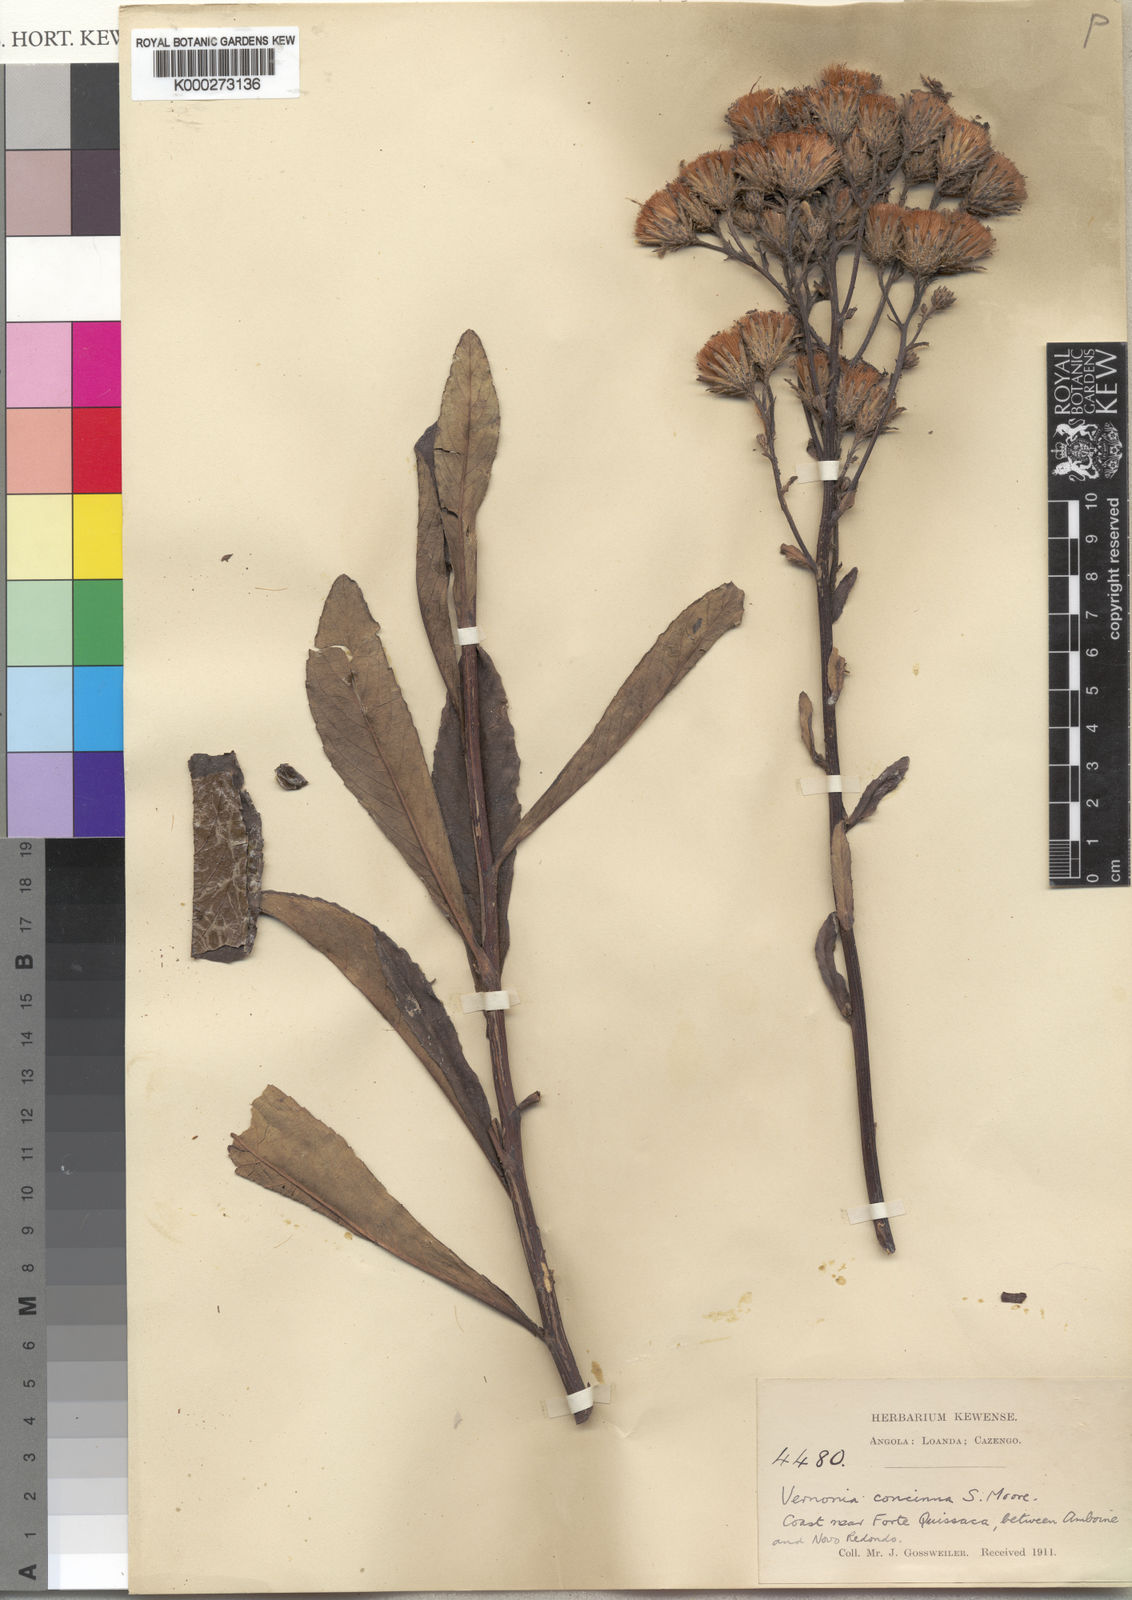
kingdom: Plantae
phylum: Tracheophyta
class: Magnoliopsida
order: Asterales
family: Asteraceae
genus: Vernonia
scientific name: Vernonia concinna
